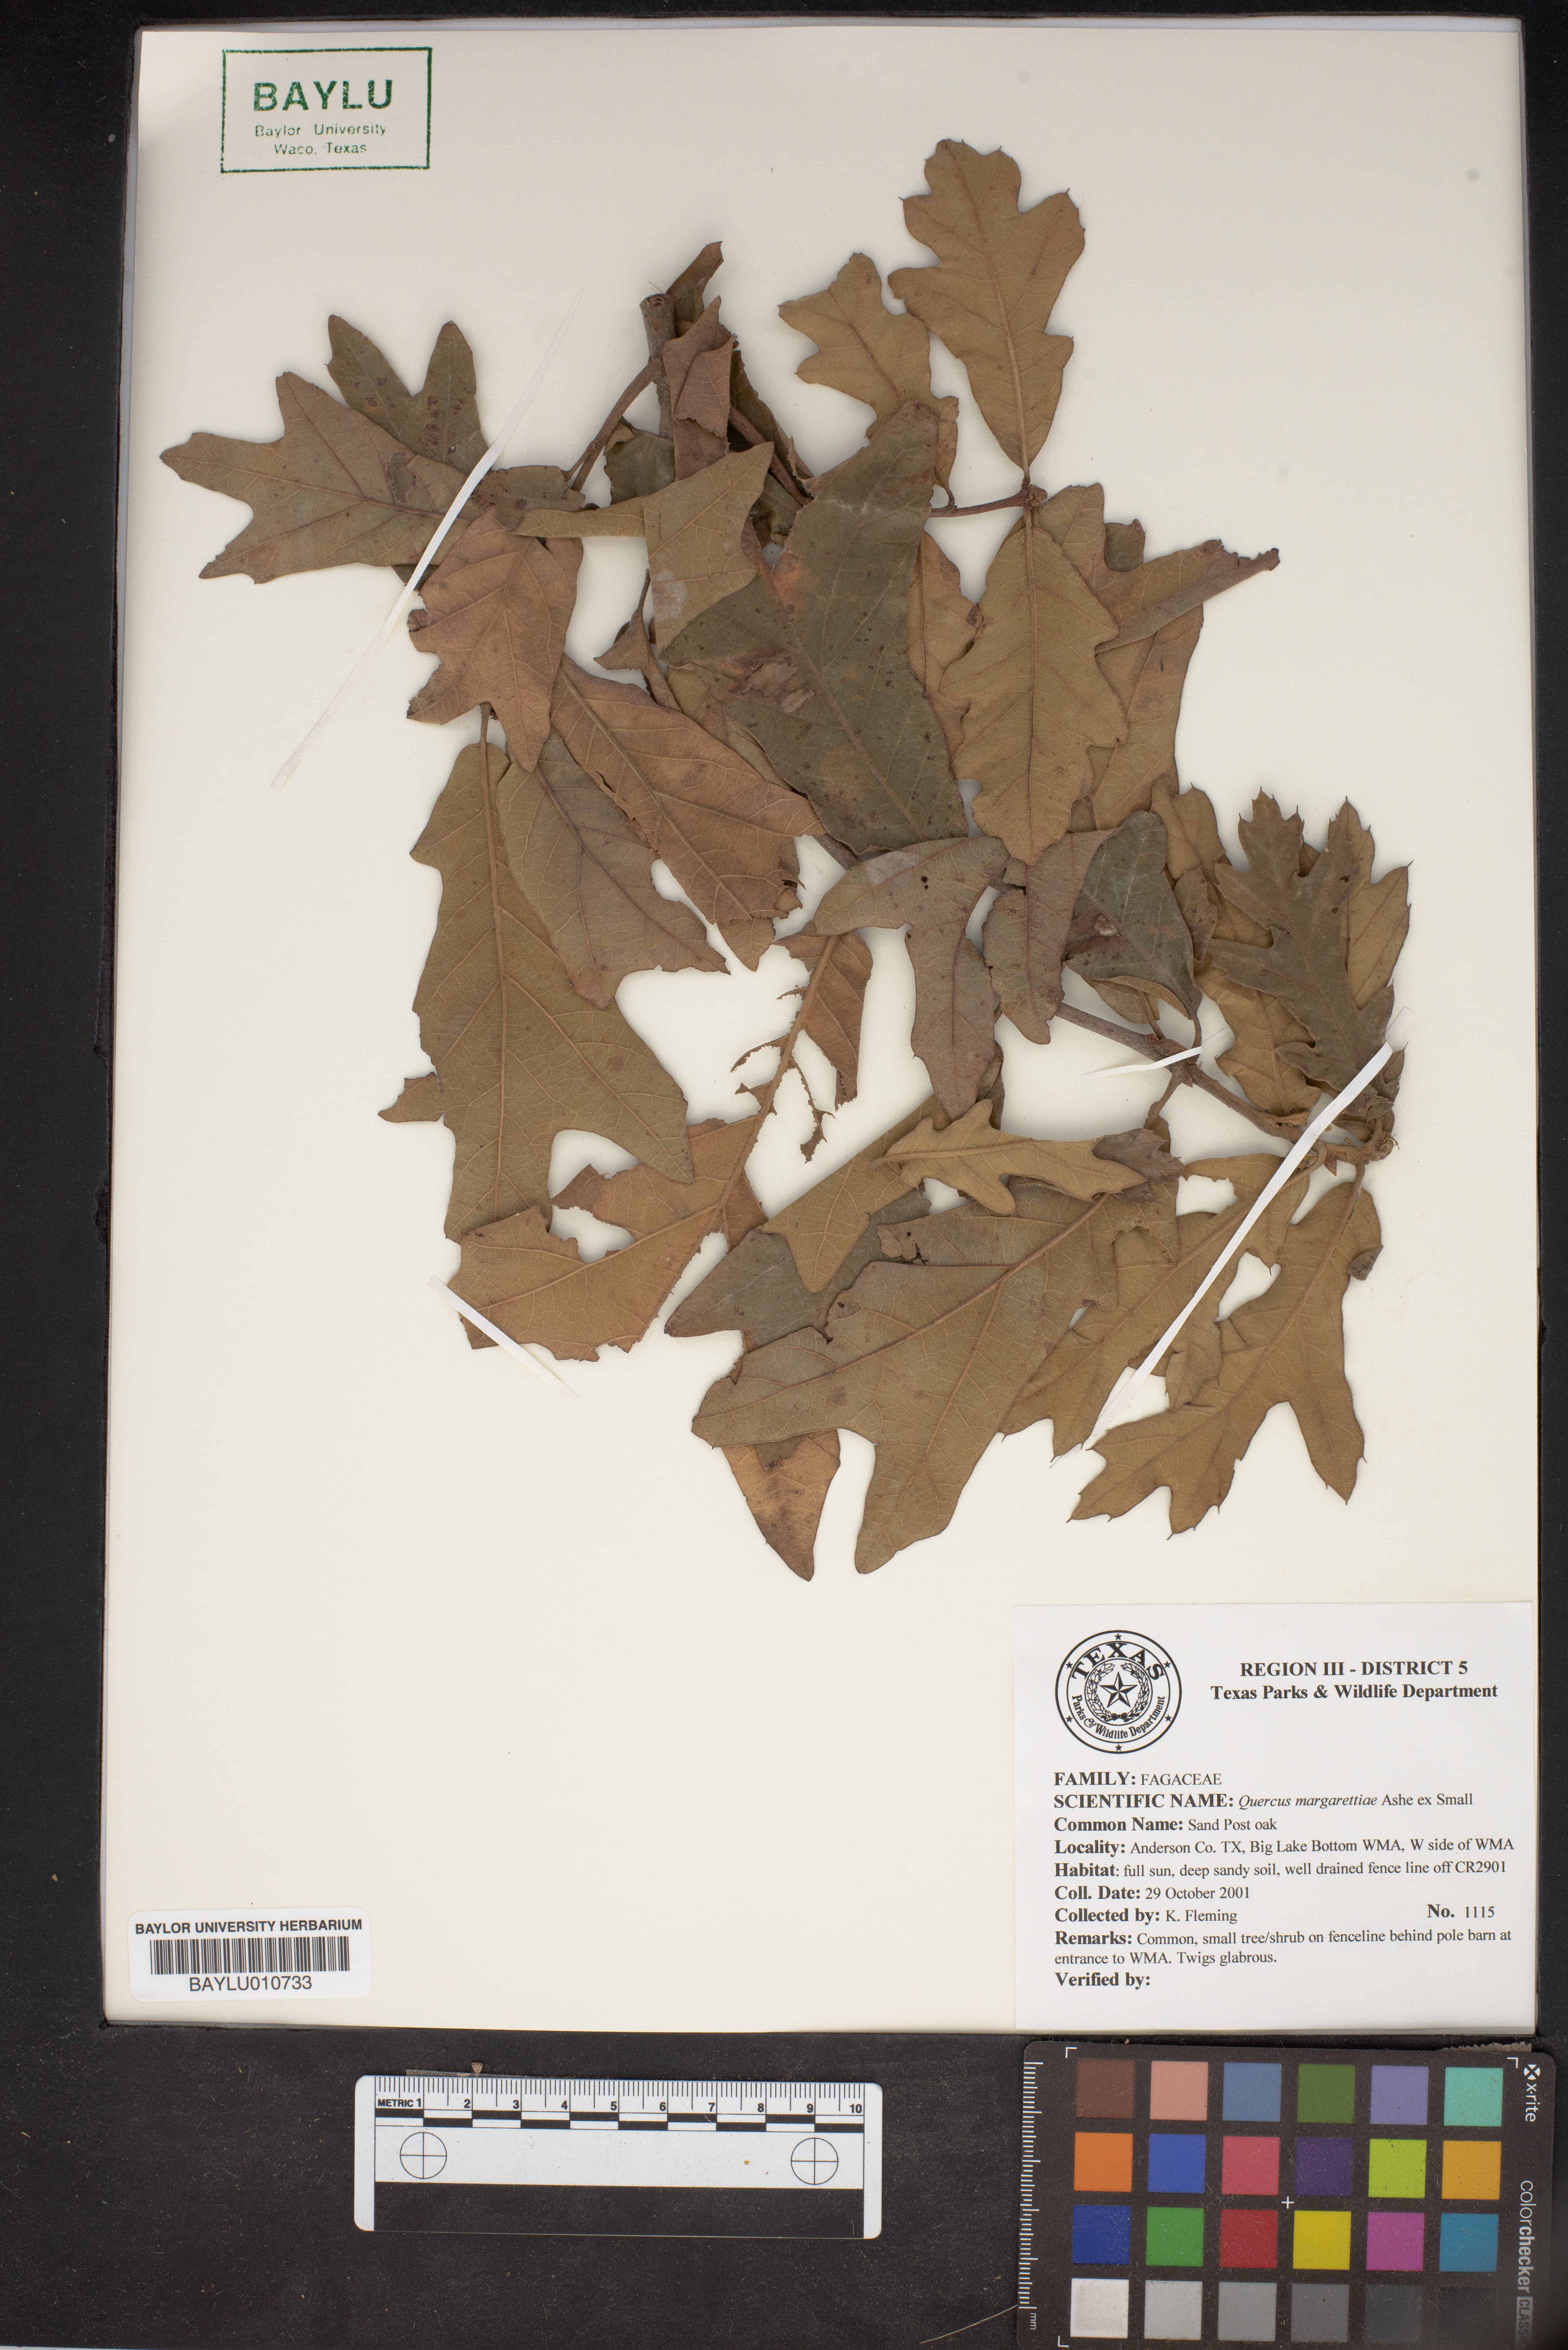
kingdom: Plantae
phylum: Tracheophyta
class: Magnoliopsida
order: Fagales
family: Fagaceae
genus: Quercus
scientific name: Quercus margaretiae
